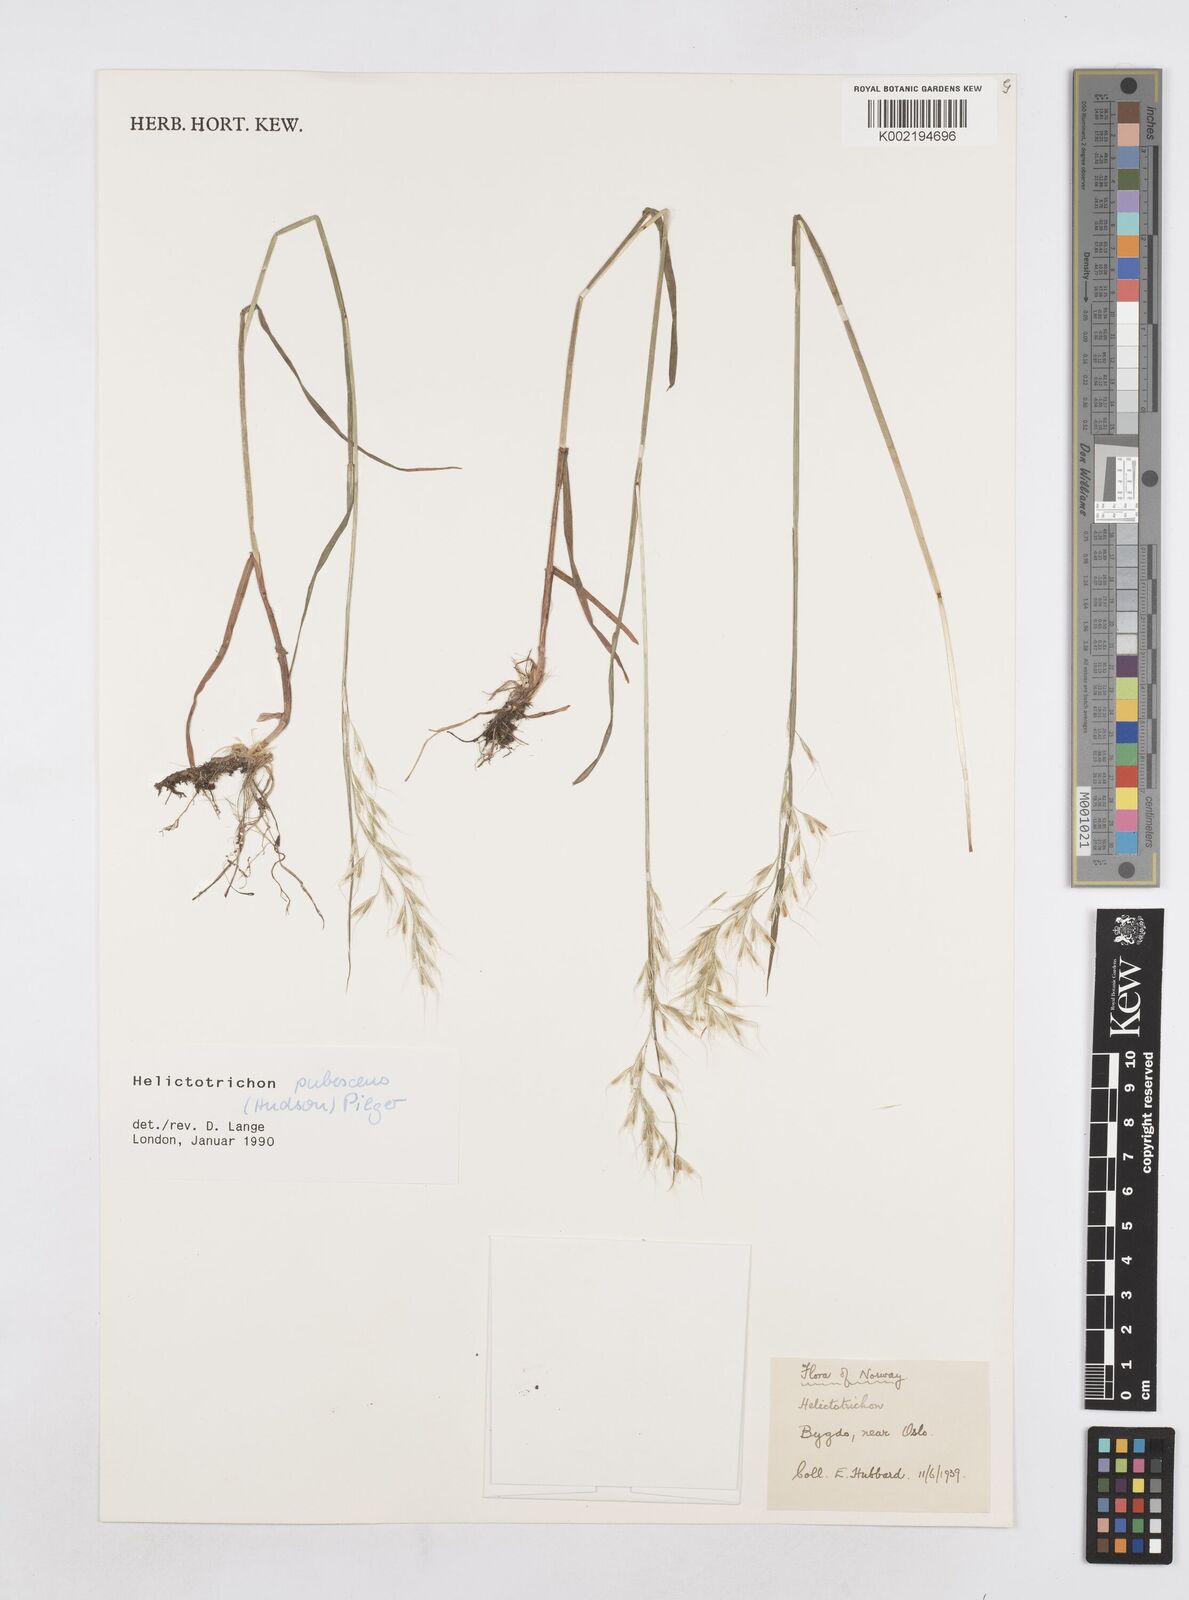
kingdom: Plantae
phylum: Tracheophyta
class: Liliopsida
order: Poales
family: Poaceae
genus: Avenula
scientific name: Avenula pubescens
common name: Downy alpine oatgrass
